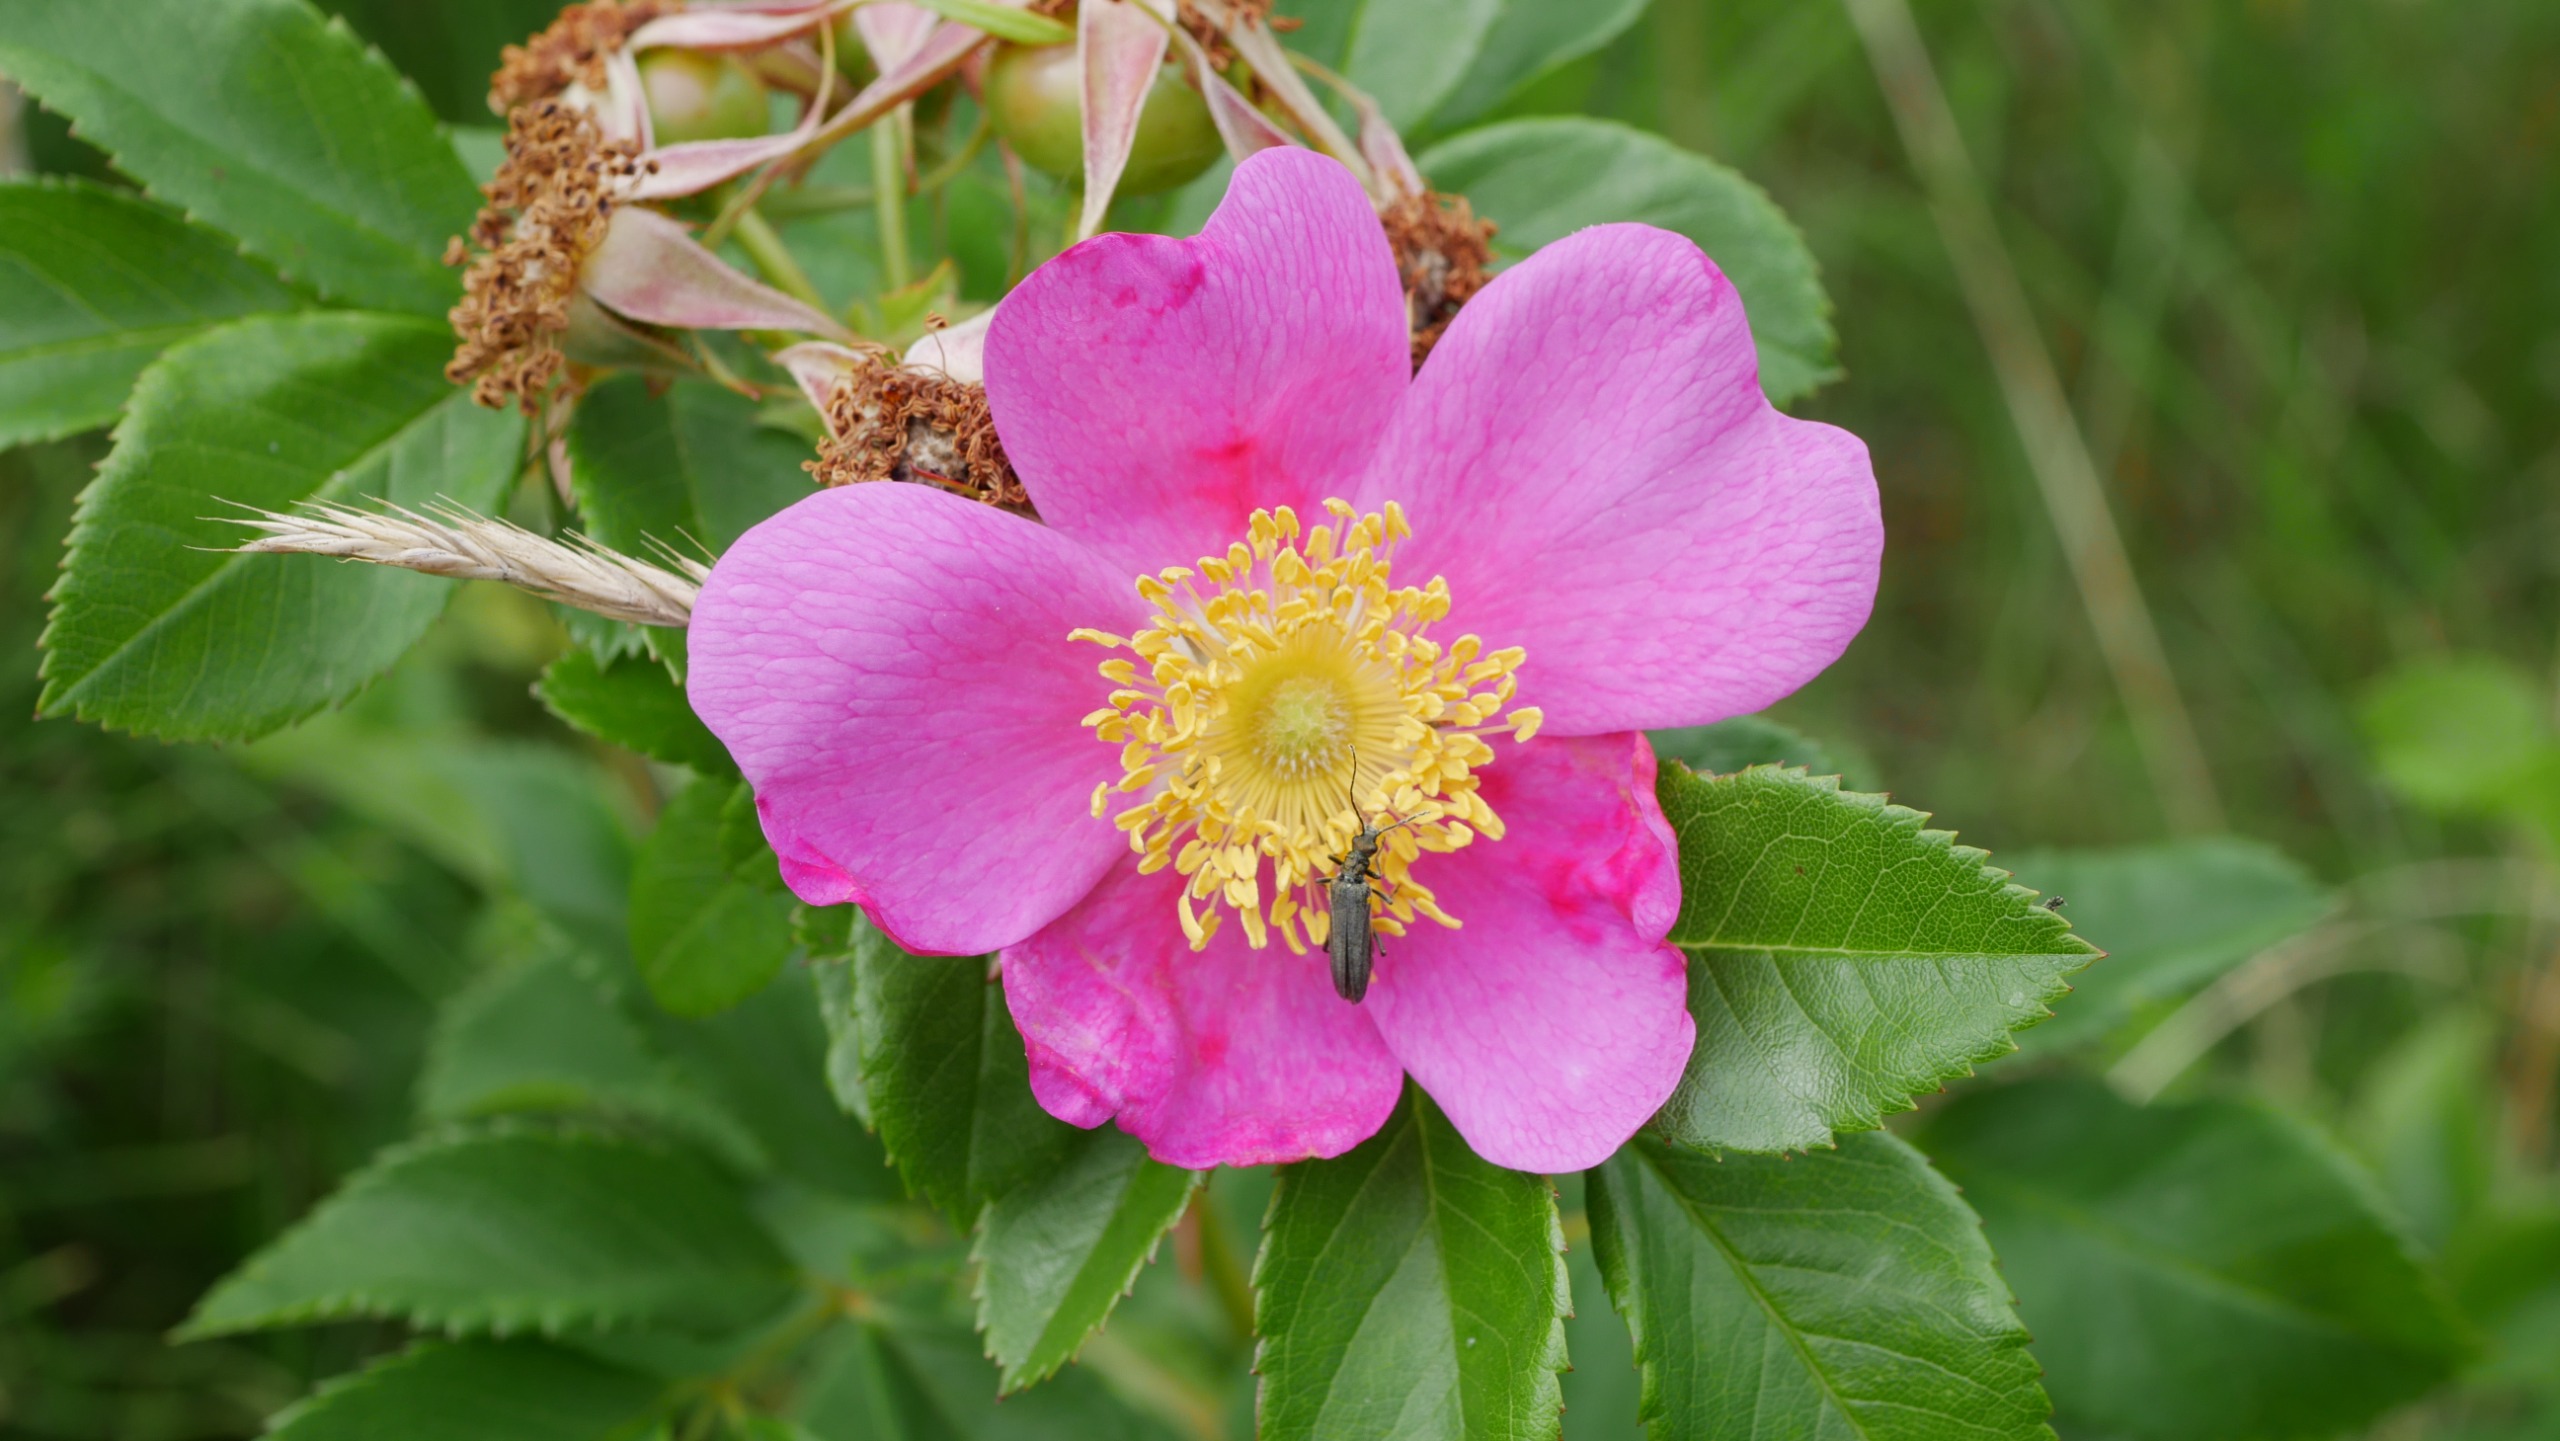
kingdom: Plantae
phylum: Tracheophyta
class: Magnoliopsida
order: Rosales
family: Rosaceae
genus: Rosa
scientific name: Rosa carolina
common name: Glansbladet rose
